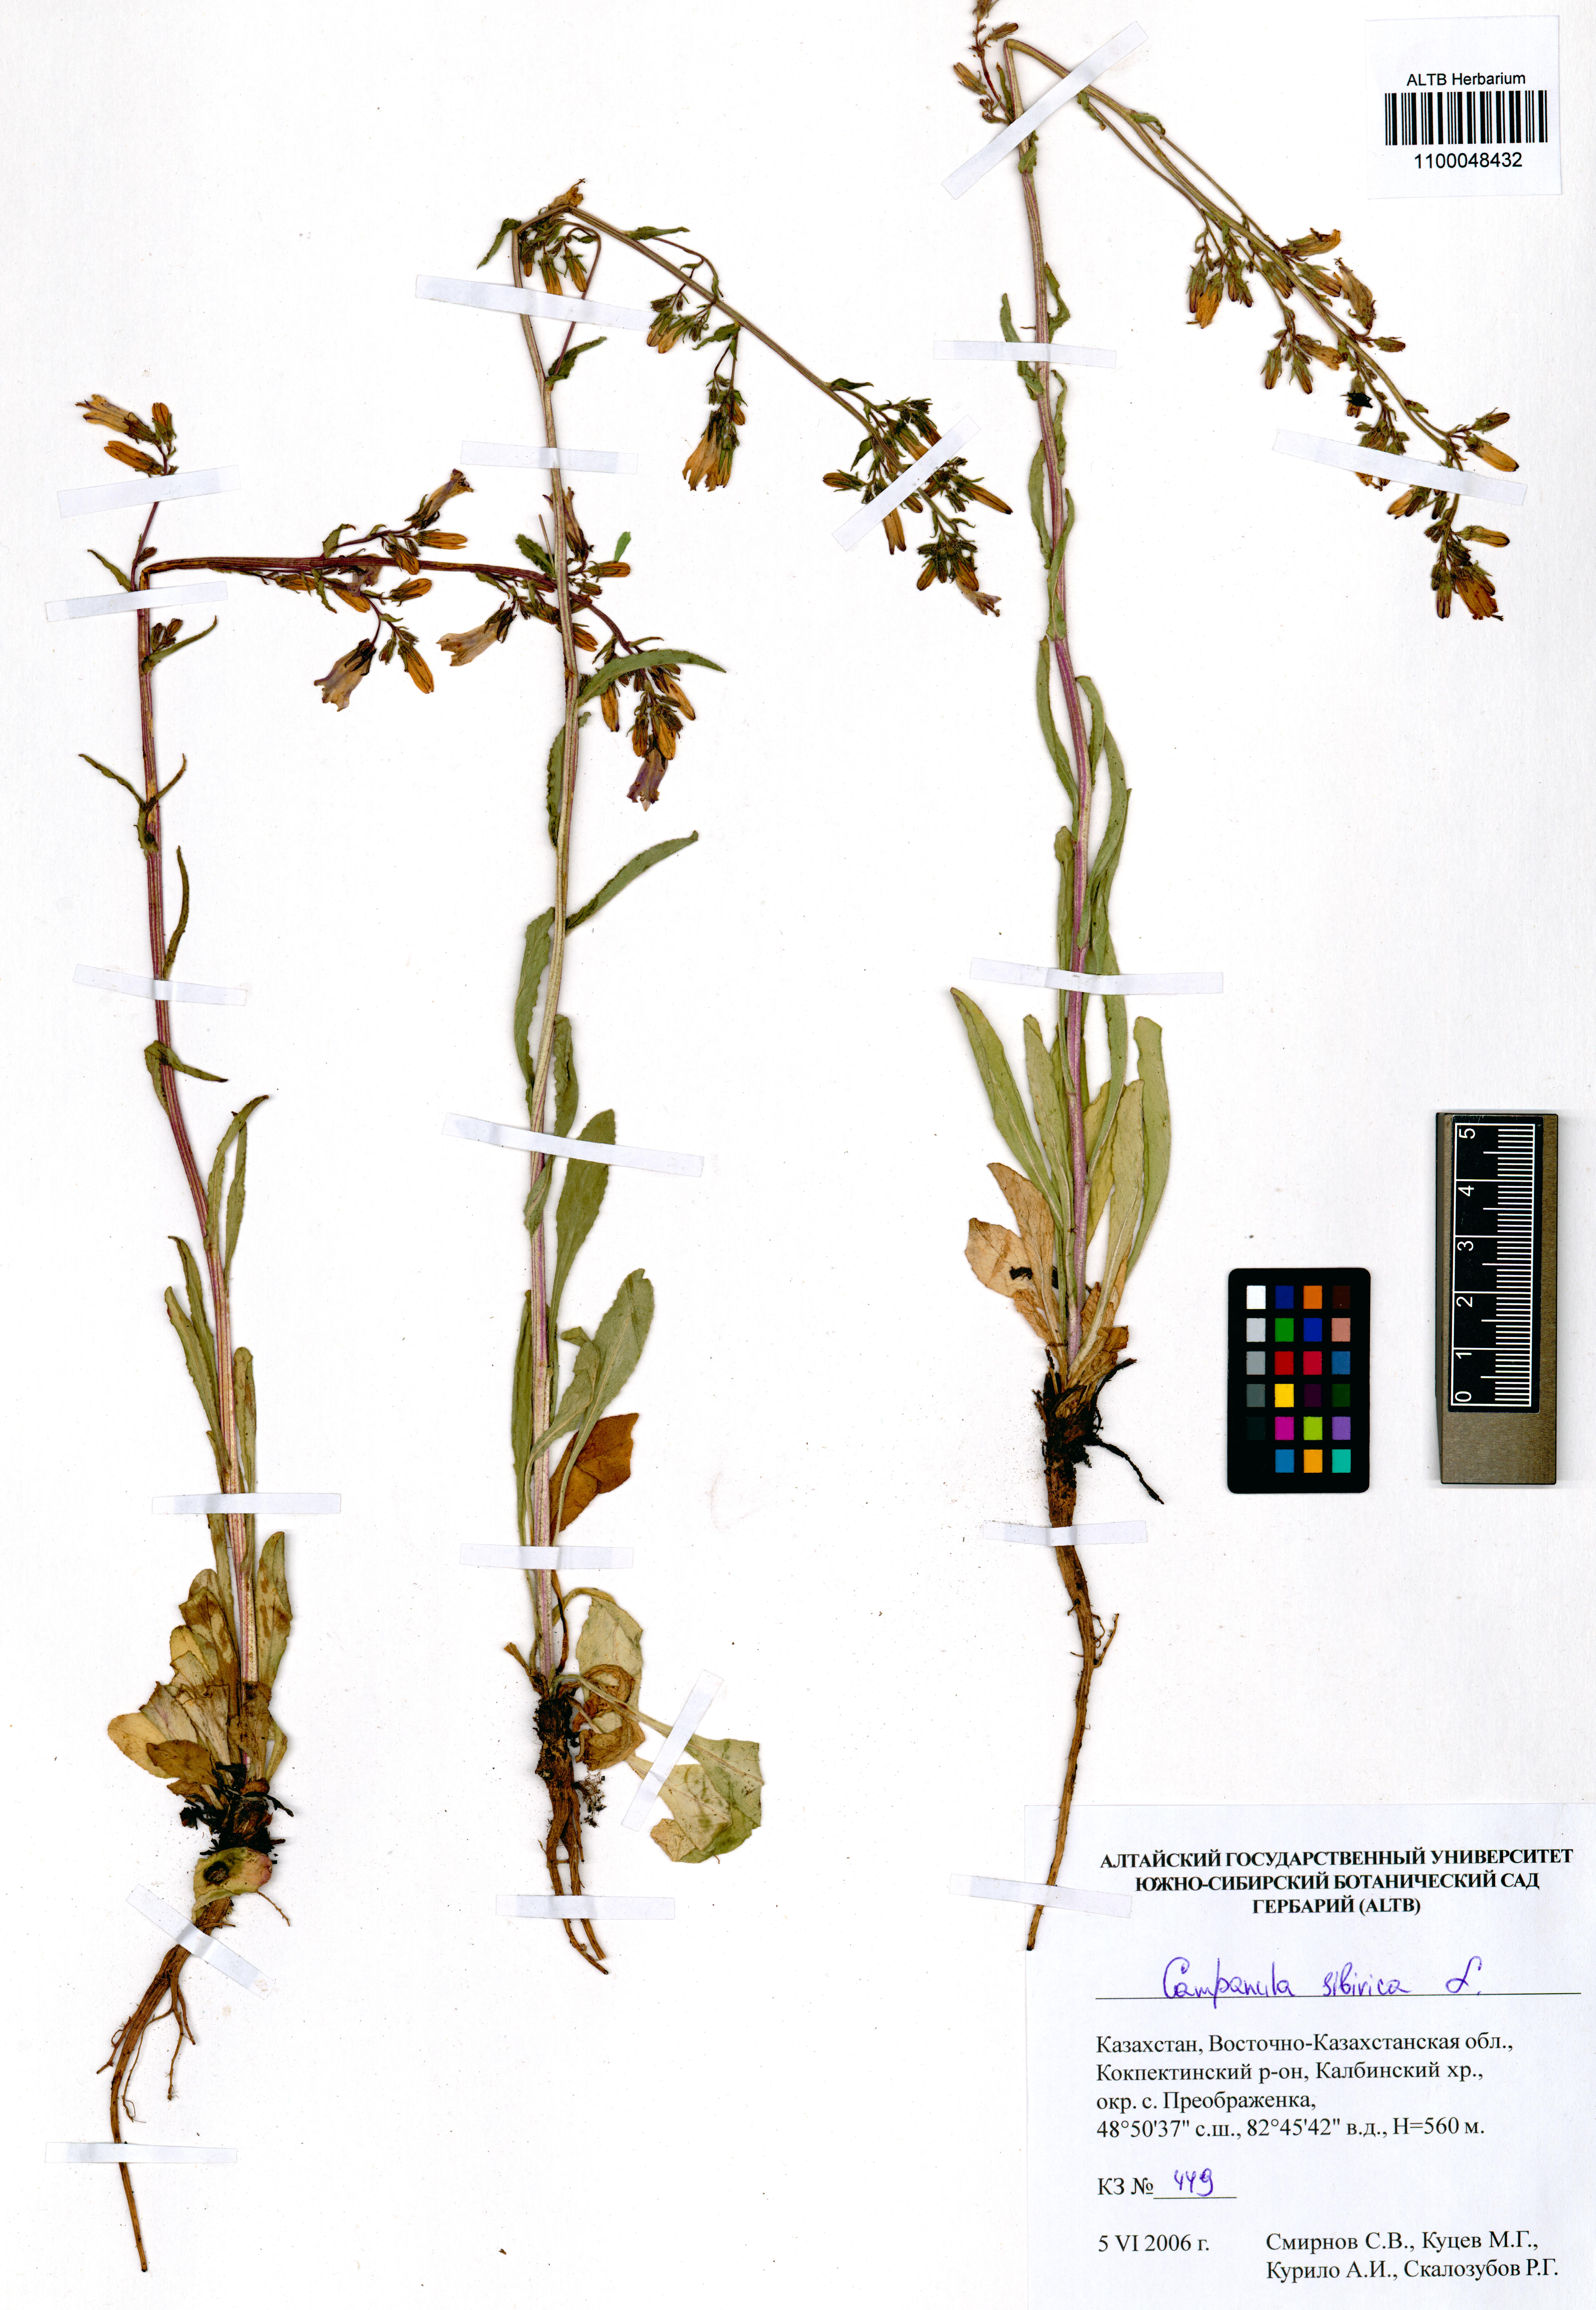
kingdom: Plantae
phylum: Tracheophyta
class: Magnoliopsida
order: Asterales
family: Campanulaceae
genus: Campanula
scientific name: Campanula sibirica
